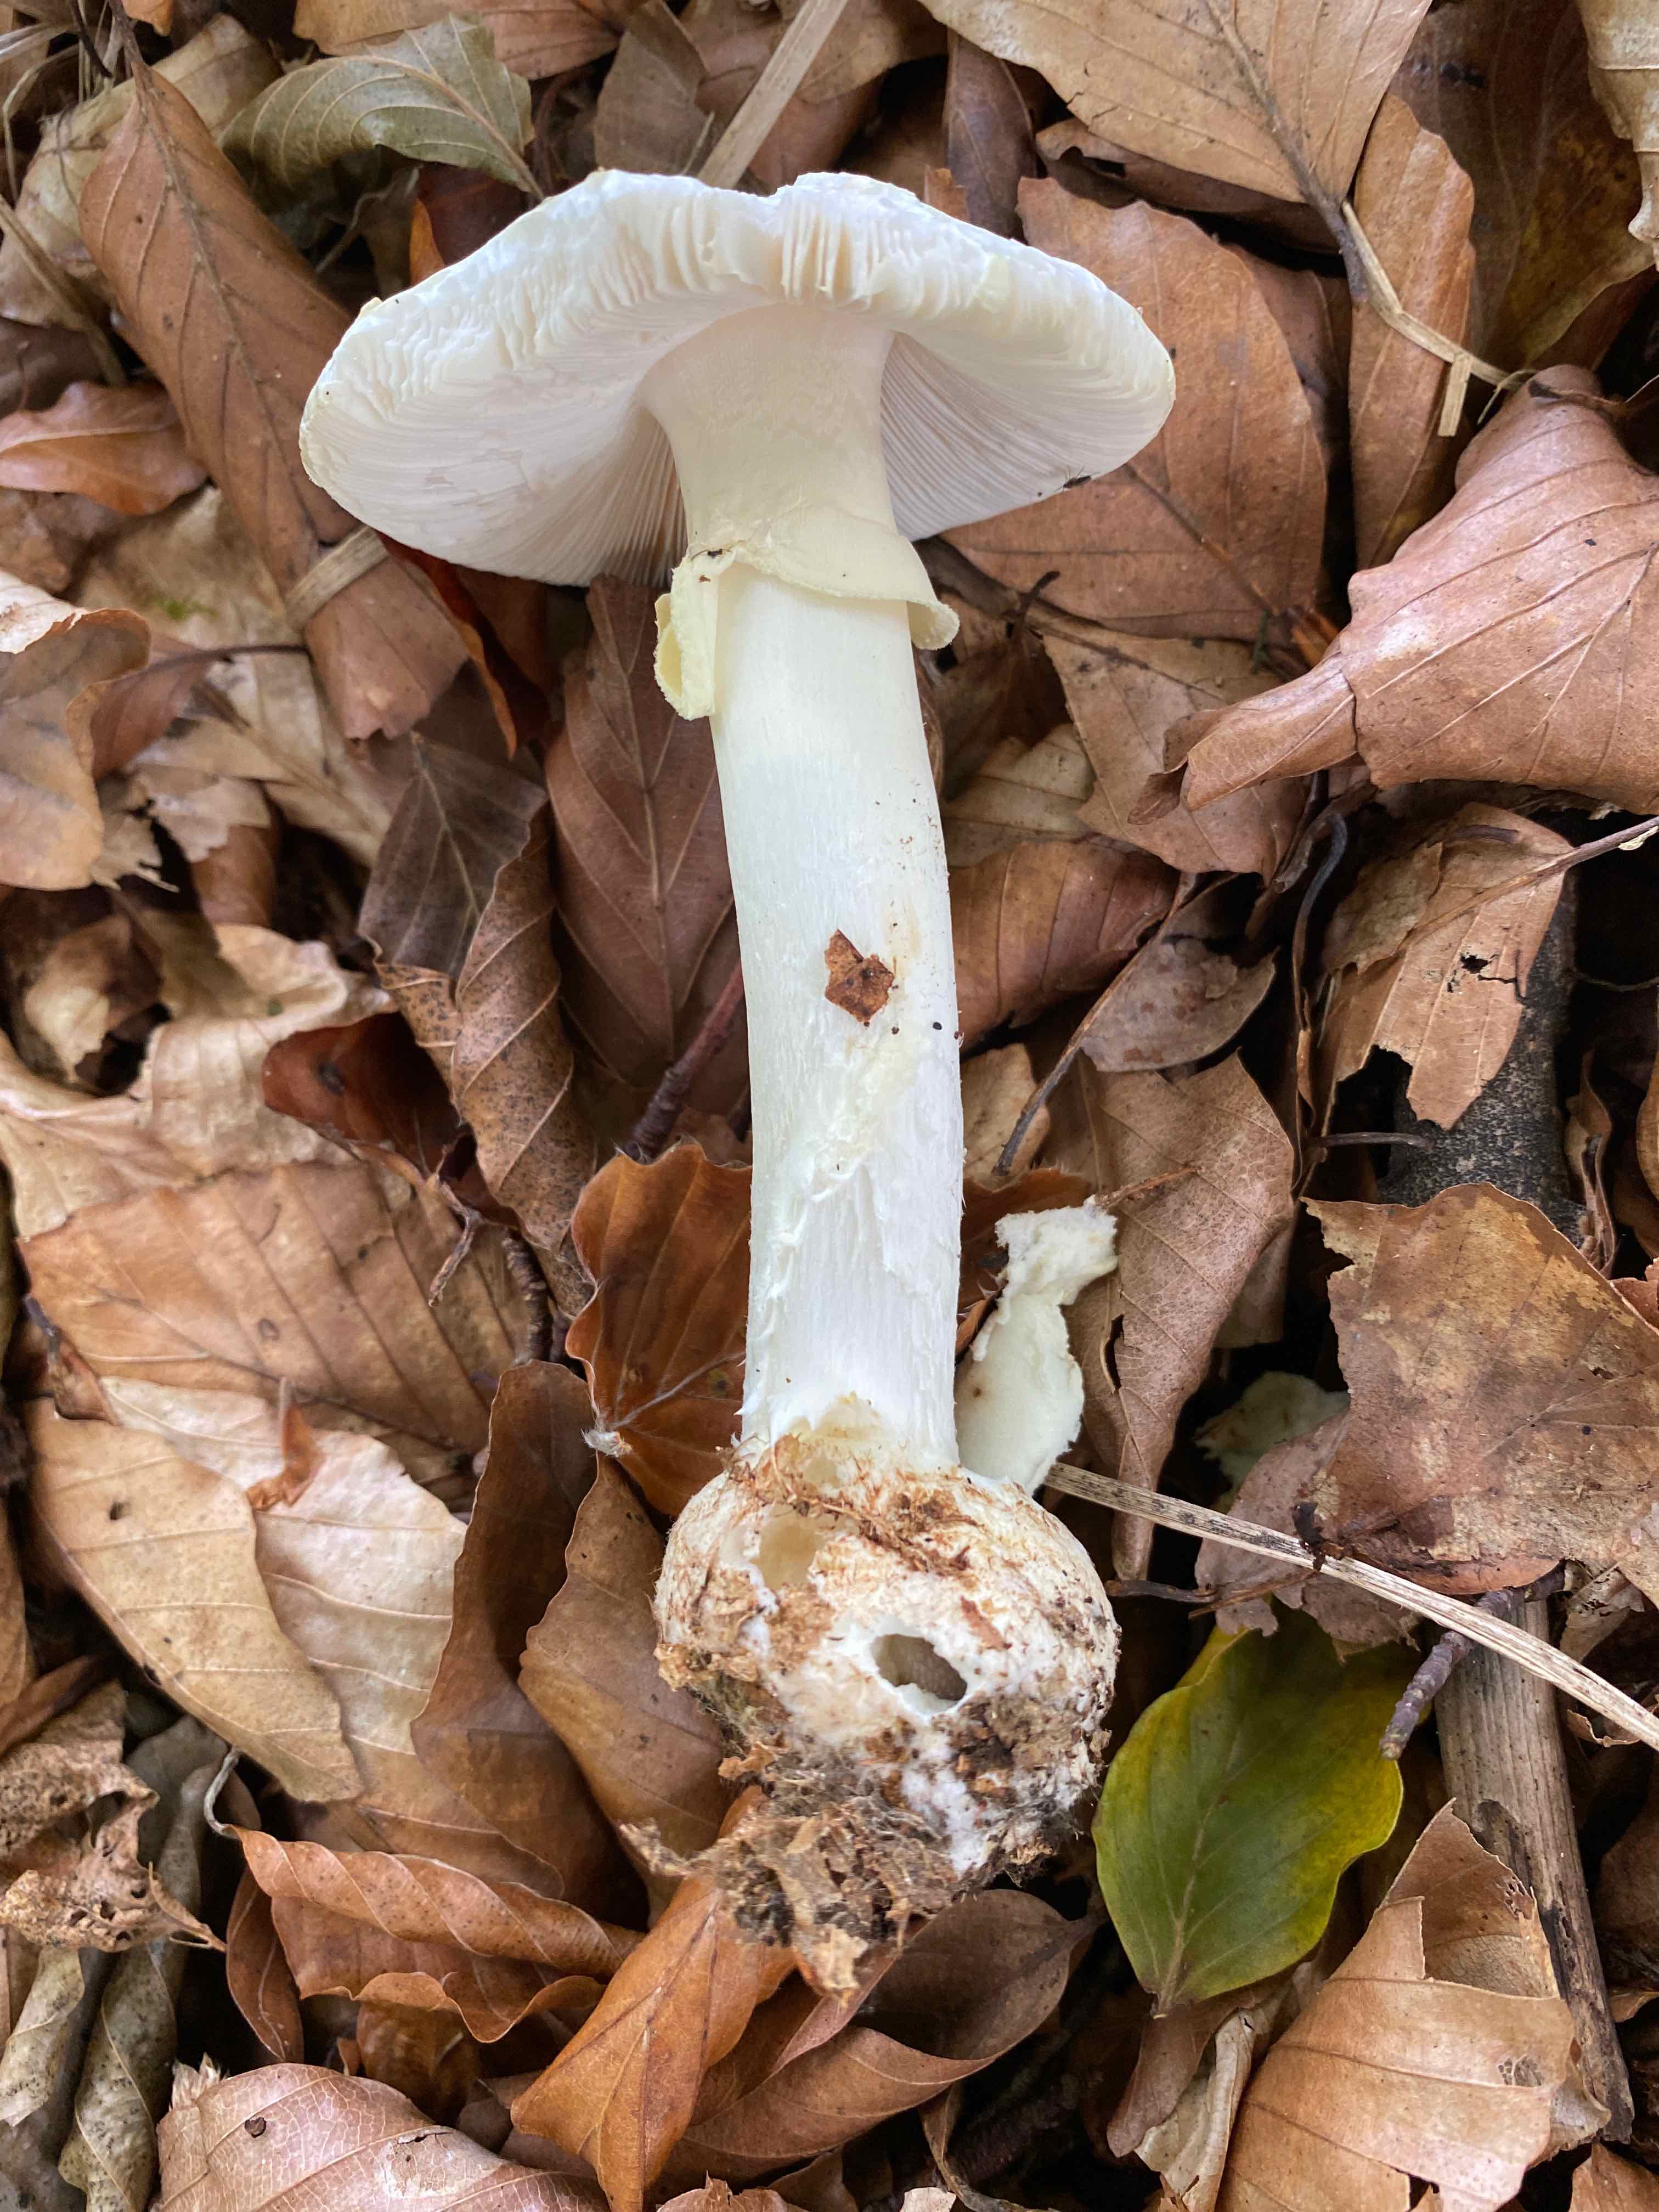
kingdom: Fungi
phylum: Basidiomycota
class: Agaricomycetes
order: Agaricales
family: Amanitaceae
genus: Amanita
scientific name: Amanita citrina
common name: kugleknoldet fluesvamp
